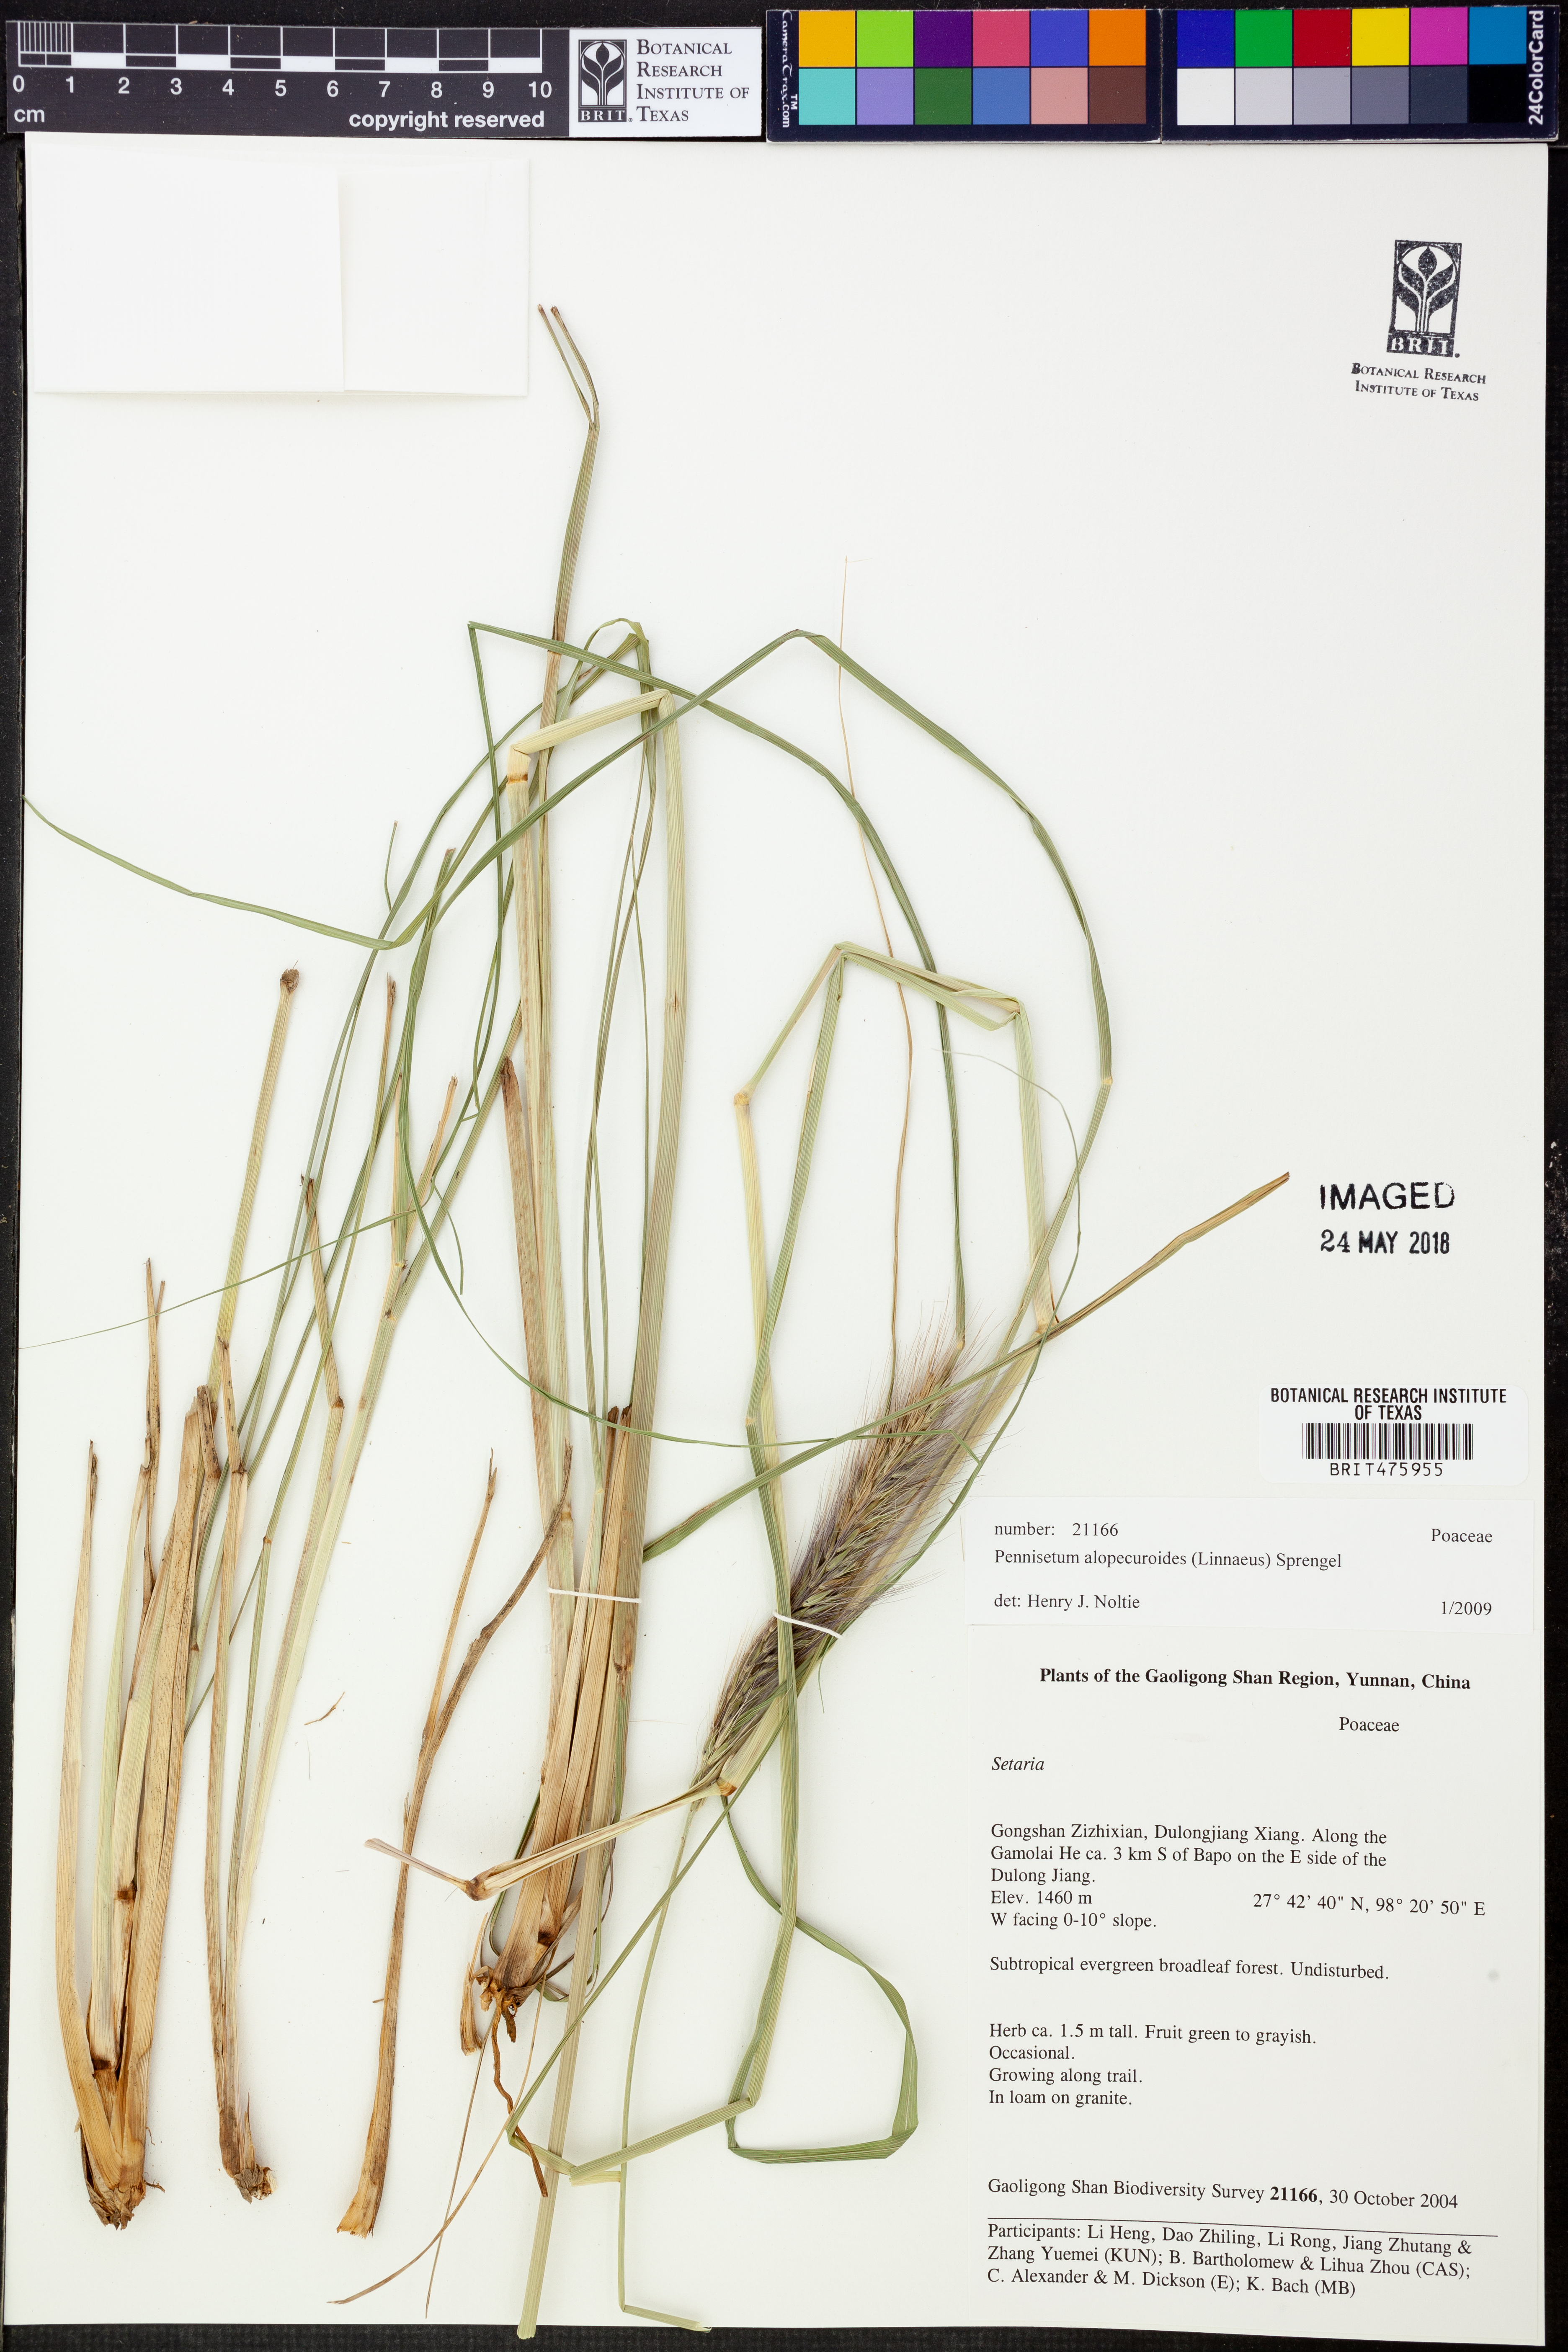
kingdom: Plantae
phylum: Tracheophyta
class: Liliopsida
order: Poales
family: Poaceae
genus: Cenchrus
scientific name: Cenchrus alopecuroides
